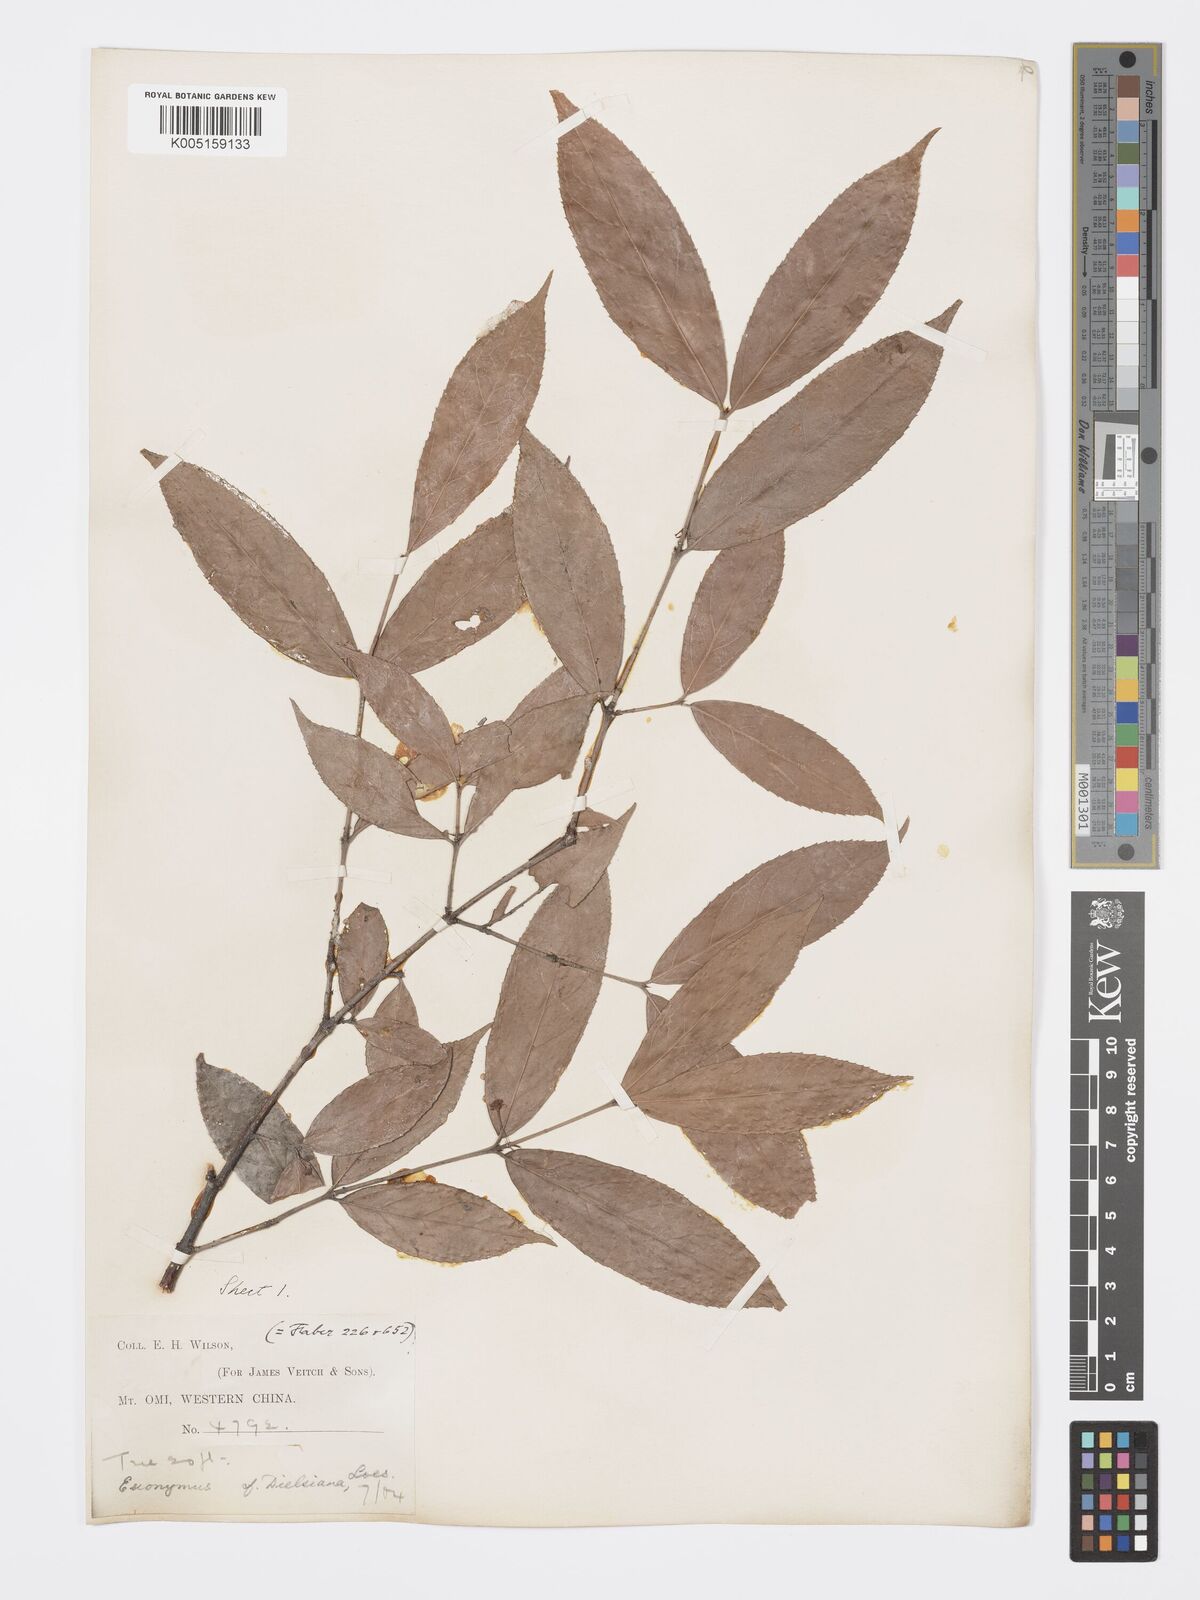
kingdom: Plantae
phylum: Tracheophyta
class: Magnoliopsida
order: Celastrales
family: Celastraceae
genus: Euonymus
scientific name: Euonymus centidens
